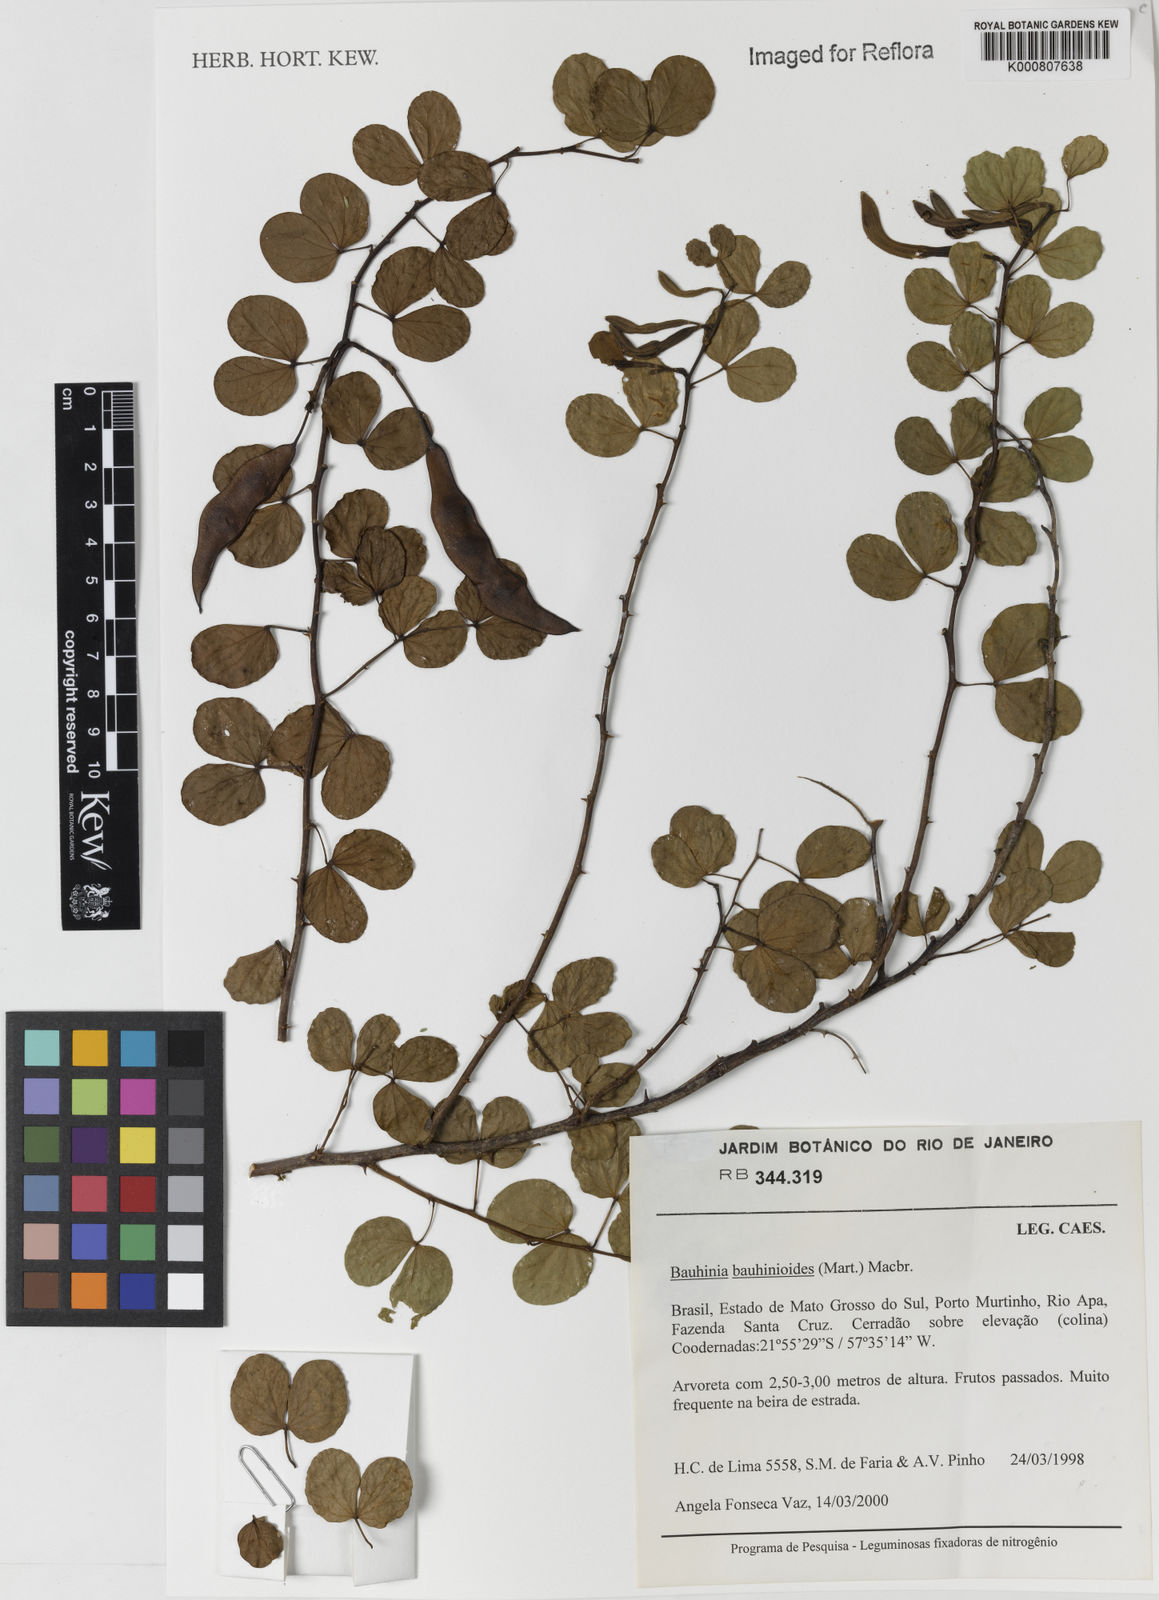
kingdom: Plantae
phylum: Tracheophyta
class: Magnoliopsida
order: Fabales
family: Fabaceae
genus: Bauhinia
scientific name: Bauhinia bauhinioides
